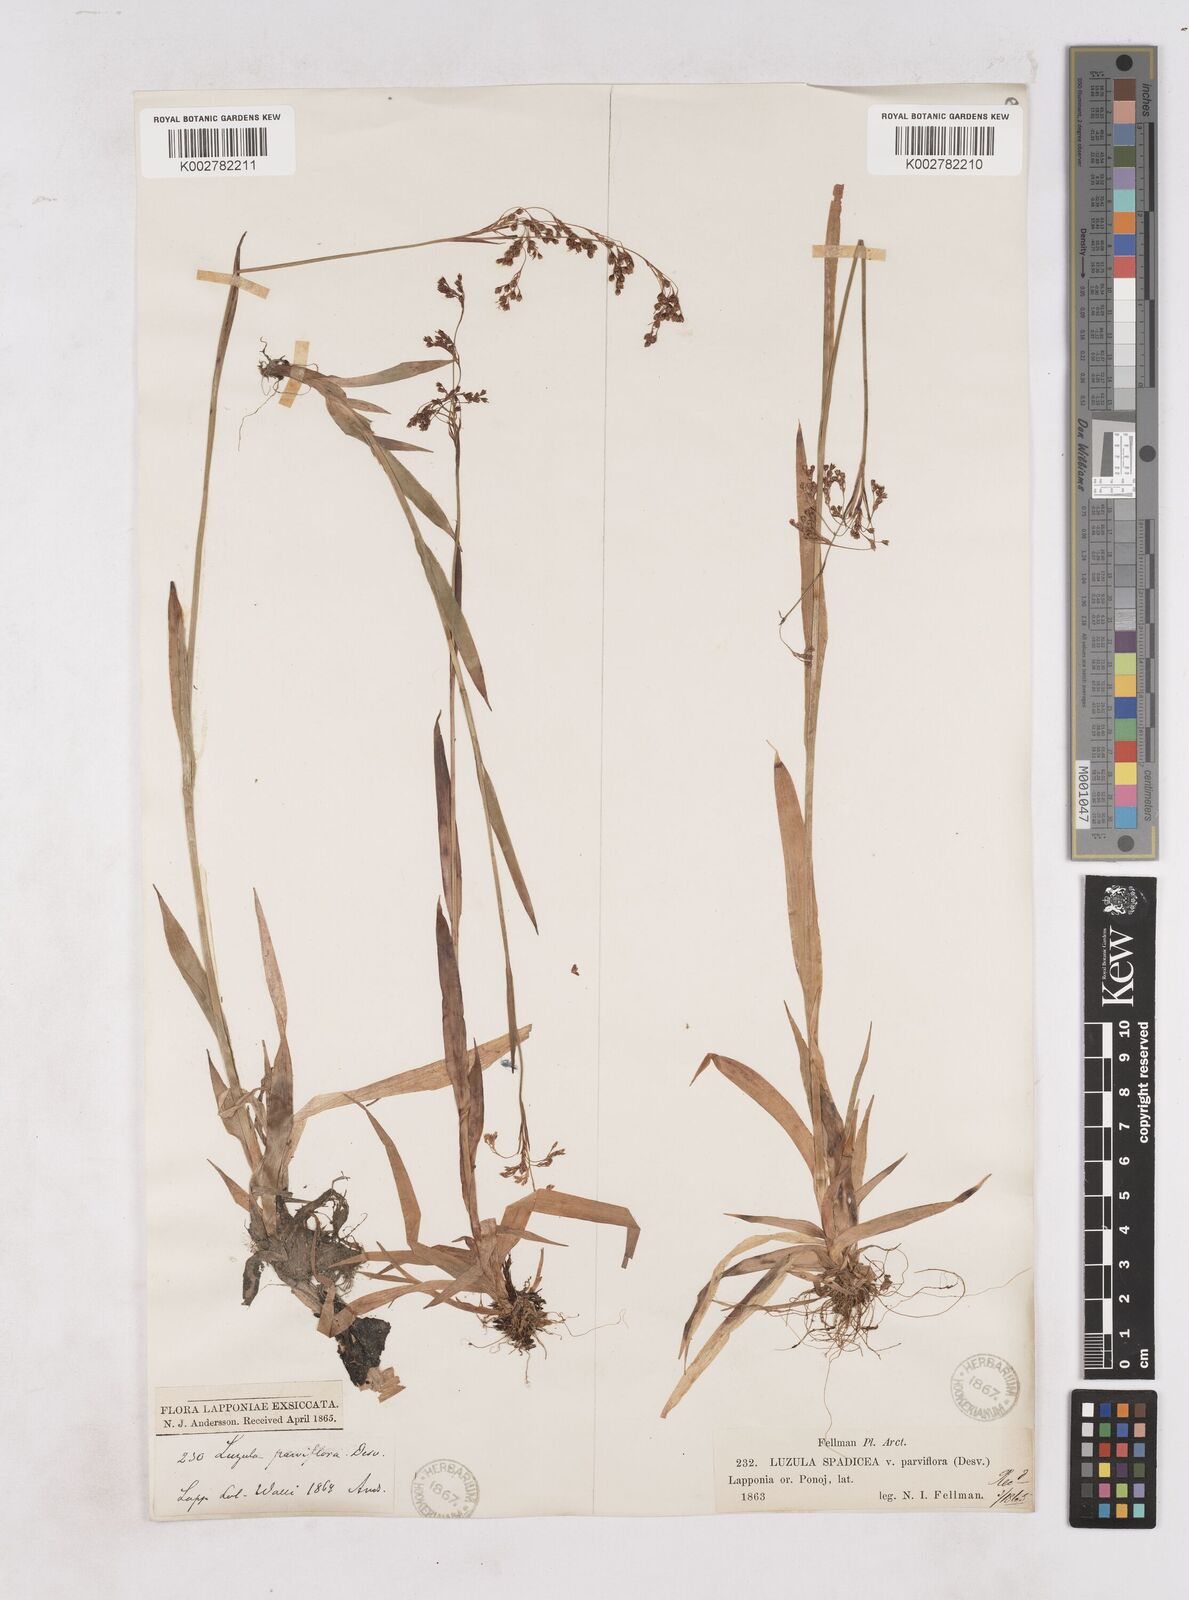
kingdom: Plantae
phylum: Tracheophyta
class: Liliopsida
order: Poales
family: Juncaceae
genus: Luzula
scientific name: Luzula parviflora
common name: Millet woodrush
